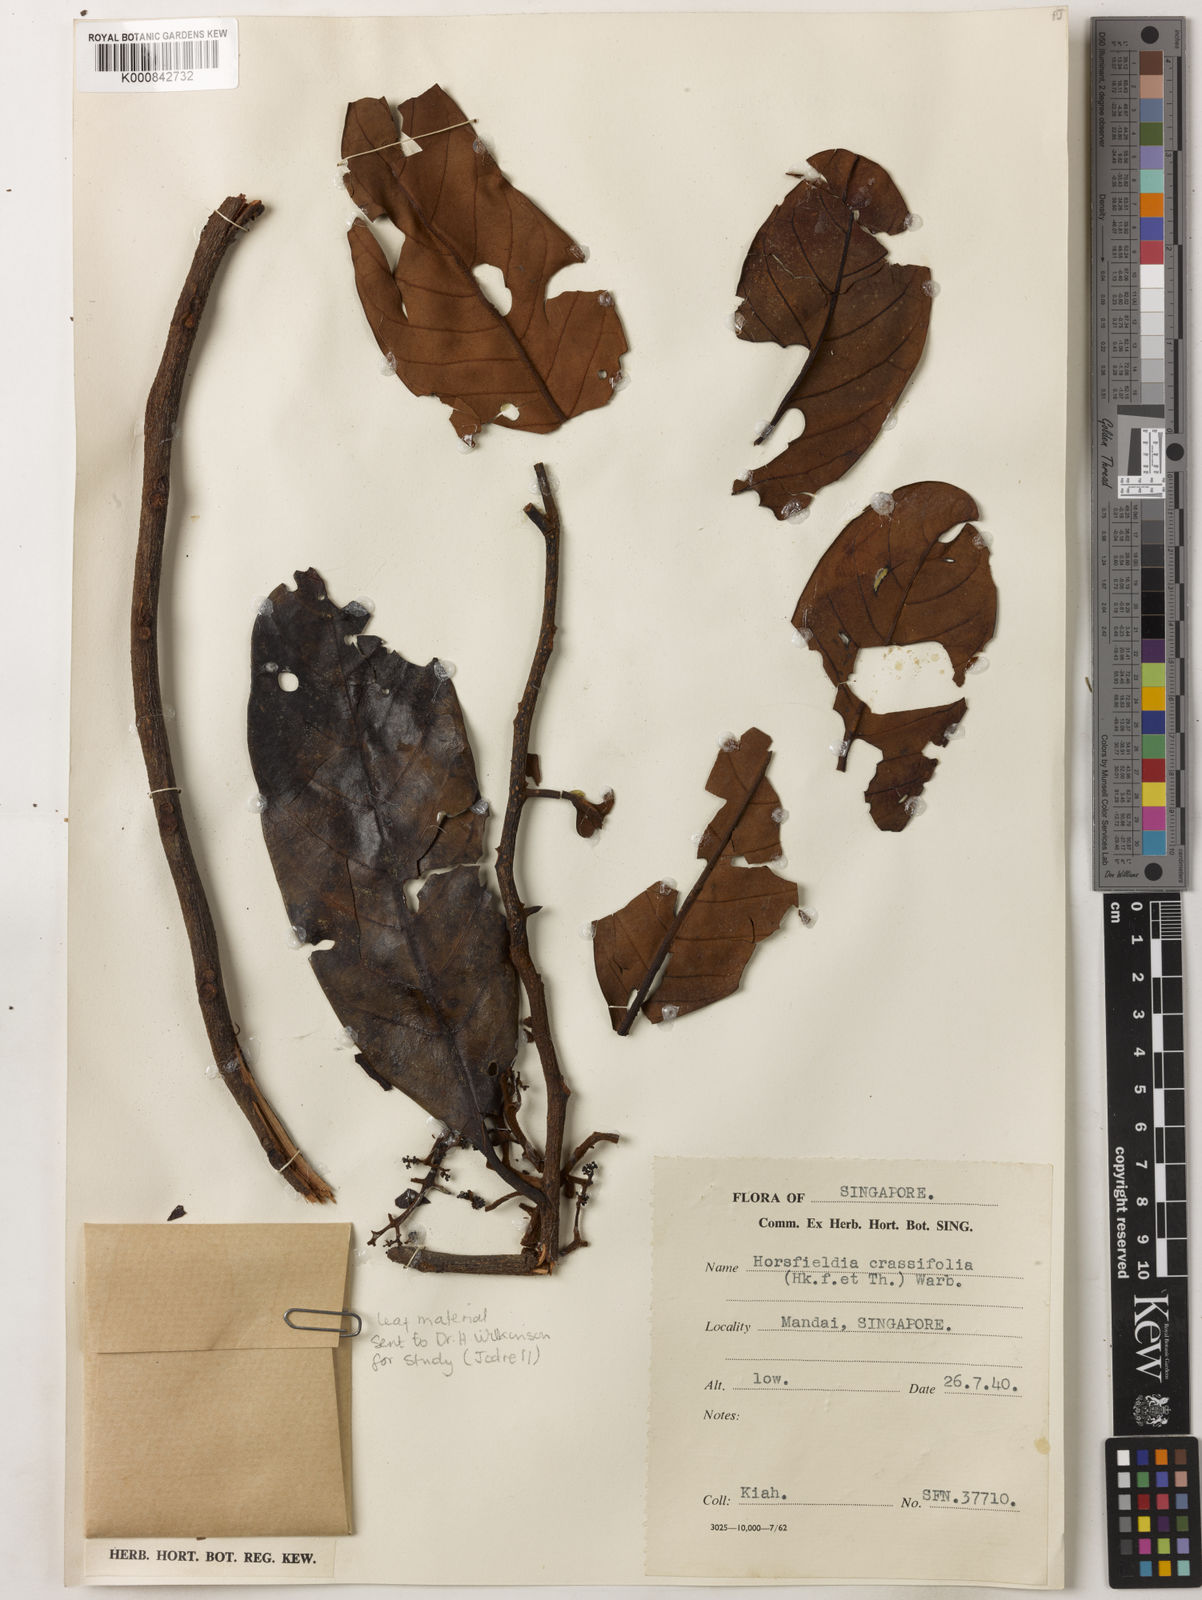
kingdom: Plantae
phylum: Tracheophyta
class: Magnoliopsida
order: Magnoliales
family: Myristicaceae
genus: Horsfieldia
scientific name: Horsfieldia crassifolia
